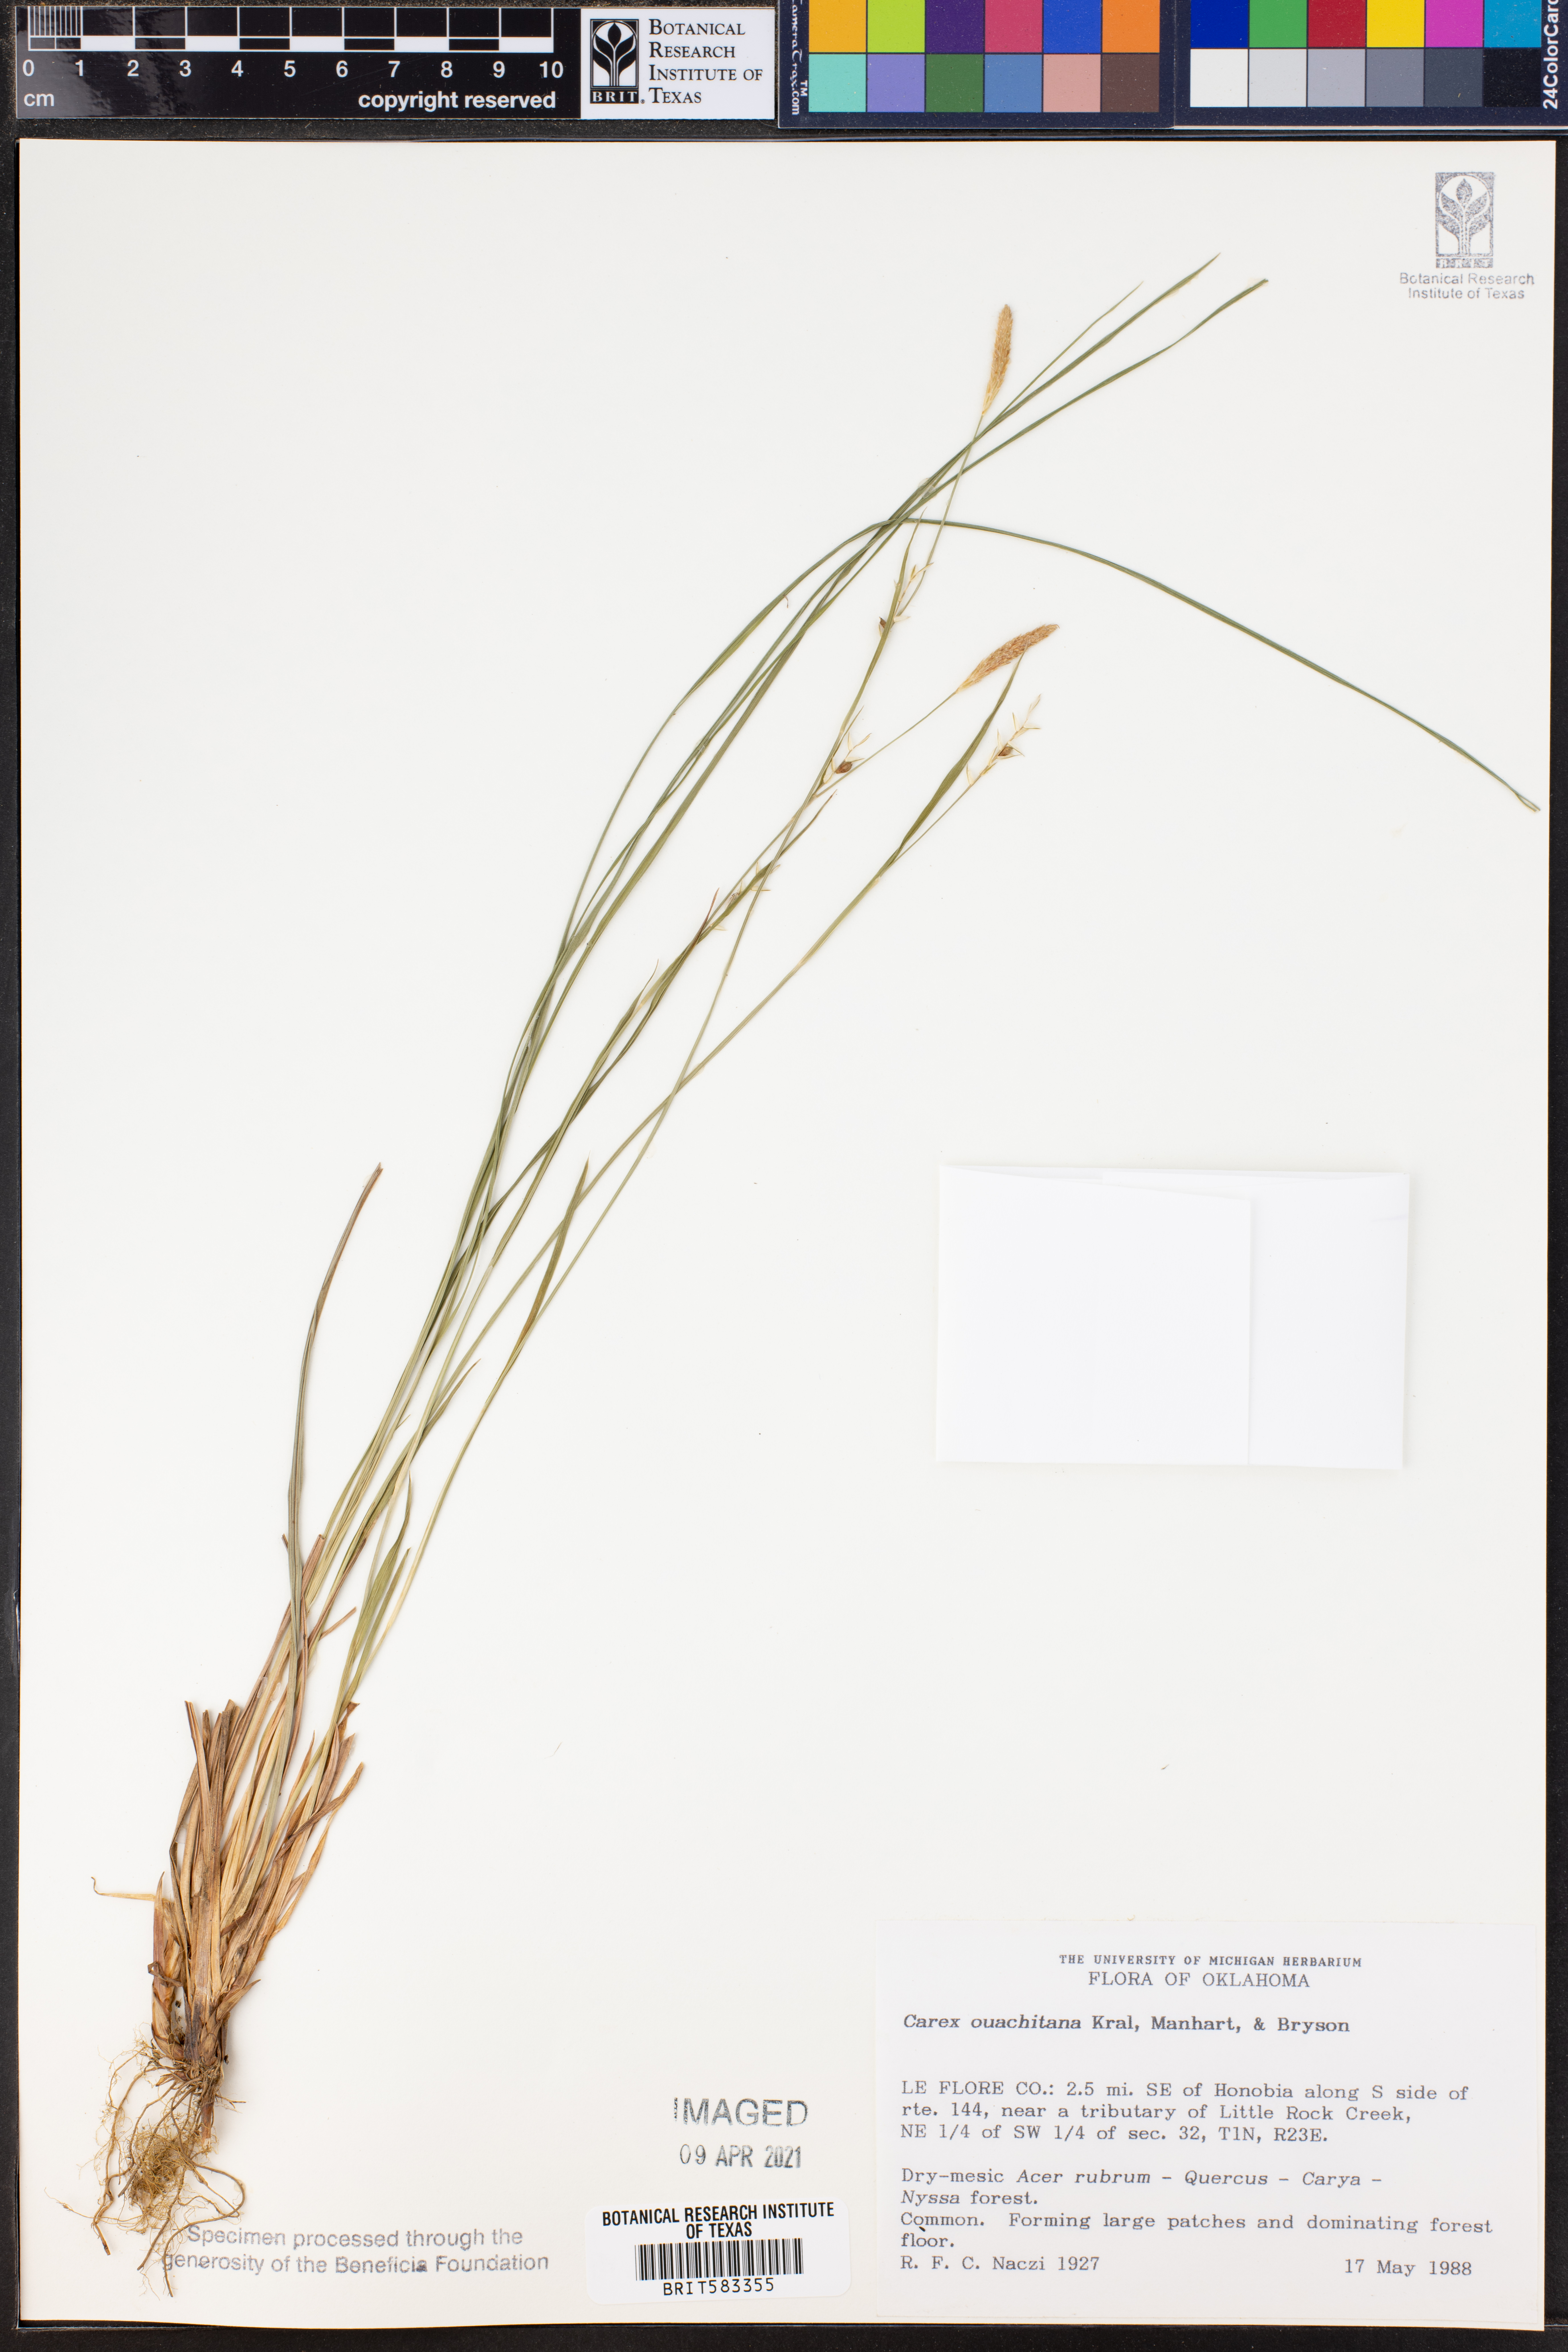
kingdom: Plantae
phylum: Tracheophyta
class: Liliopsida
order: Poales
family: Cyperaceae
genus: Carex
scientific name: Carex ouachitana
